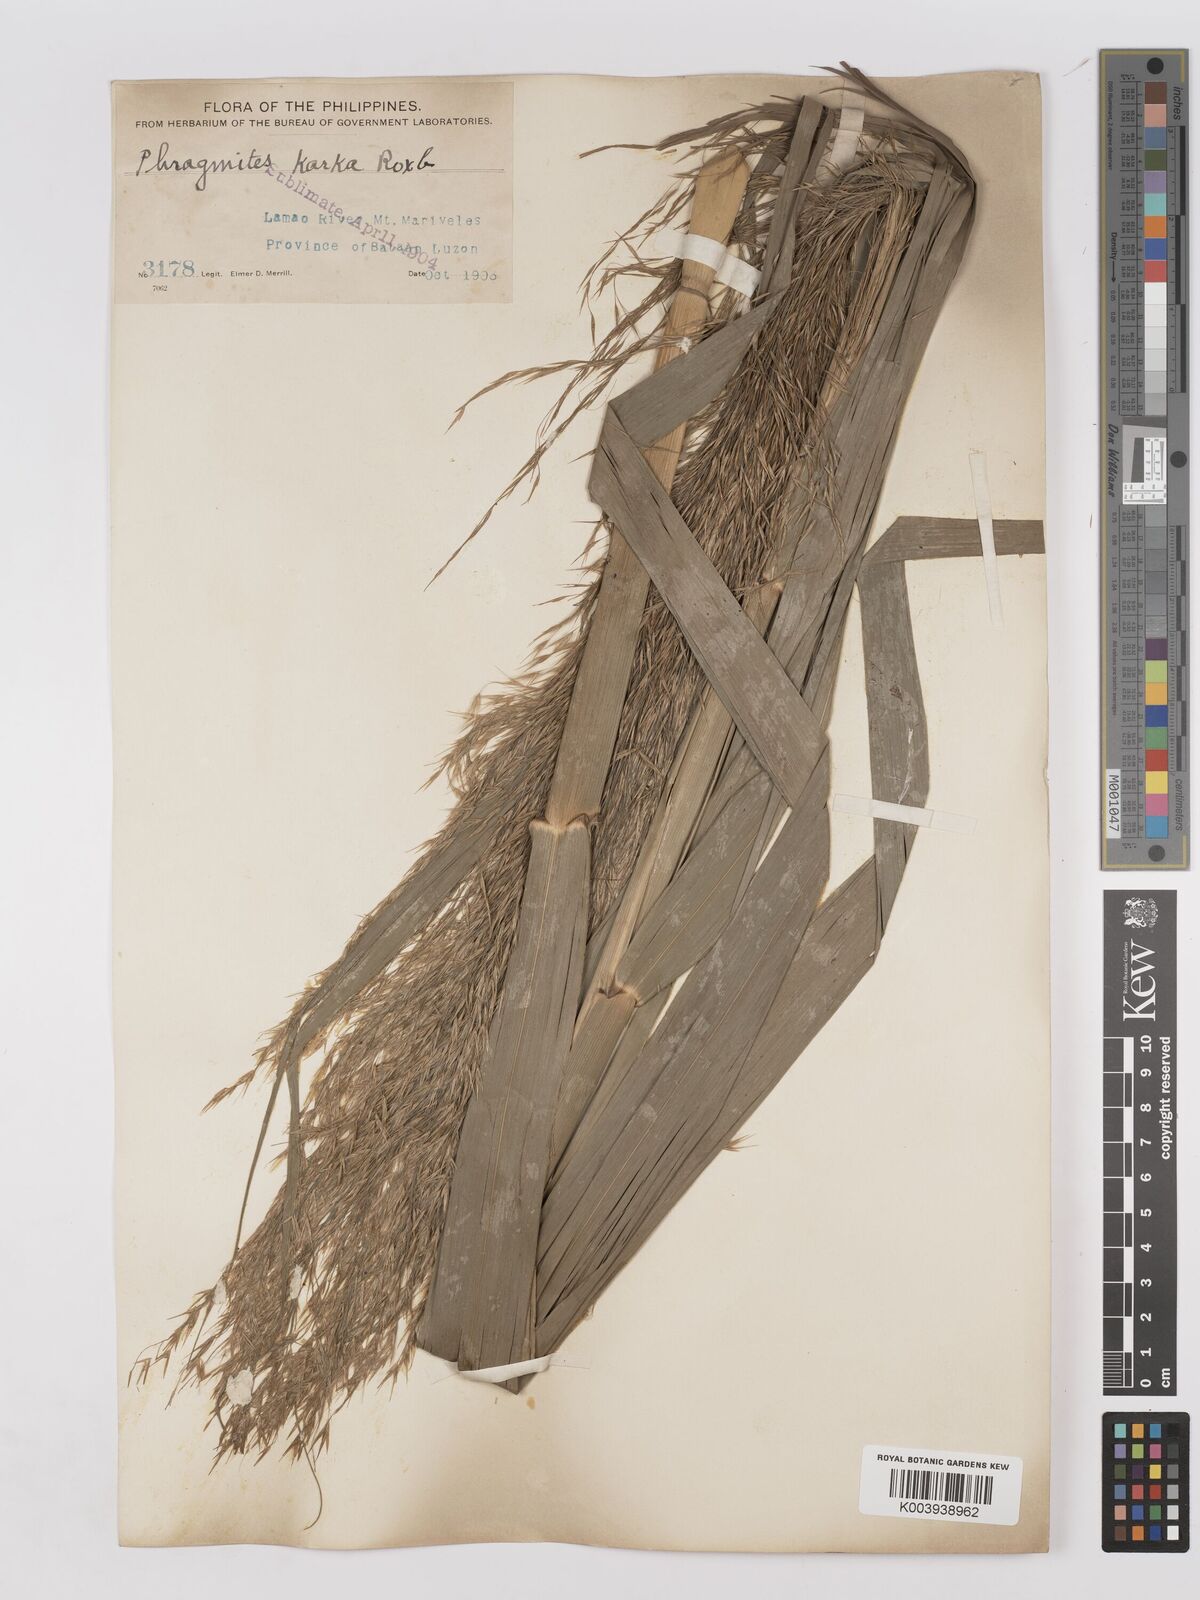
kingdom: Plantae
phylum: Tracheophyta
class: Liliopsida
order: Poales
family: Poaceae
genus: Phragmites
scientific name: Phragmites karka
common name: Tropical reed
